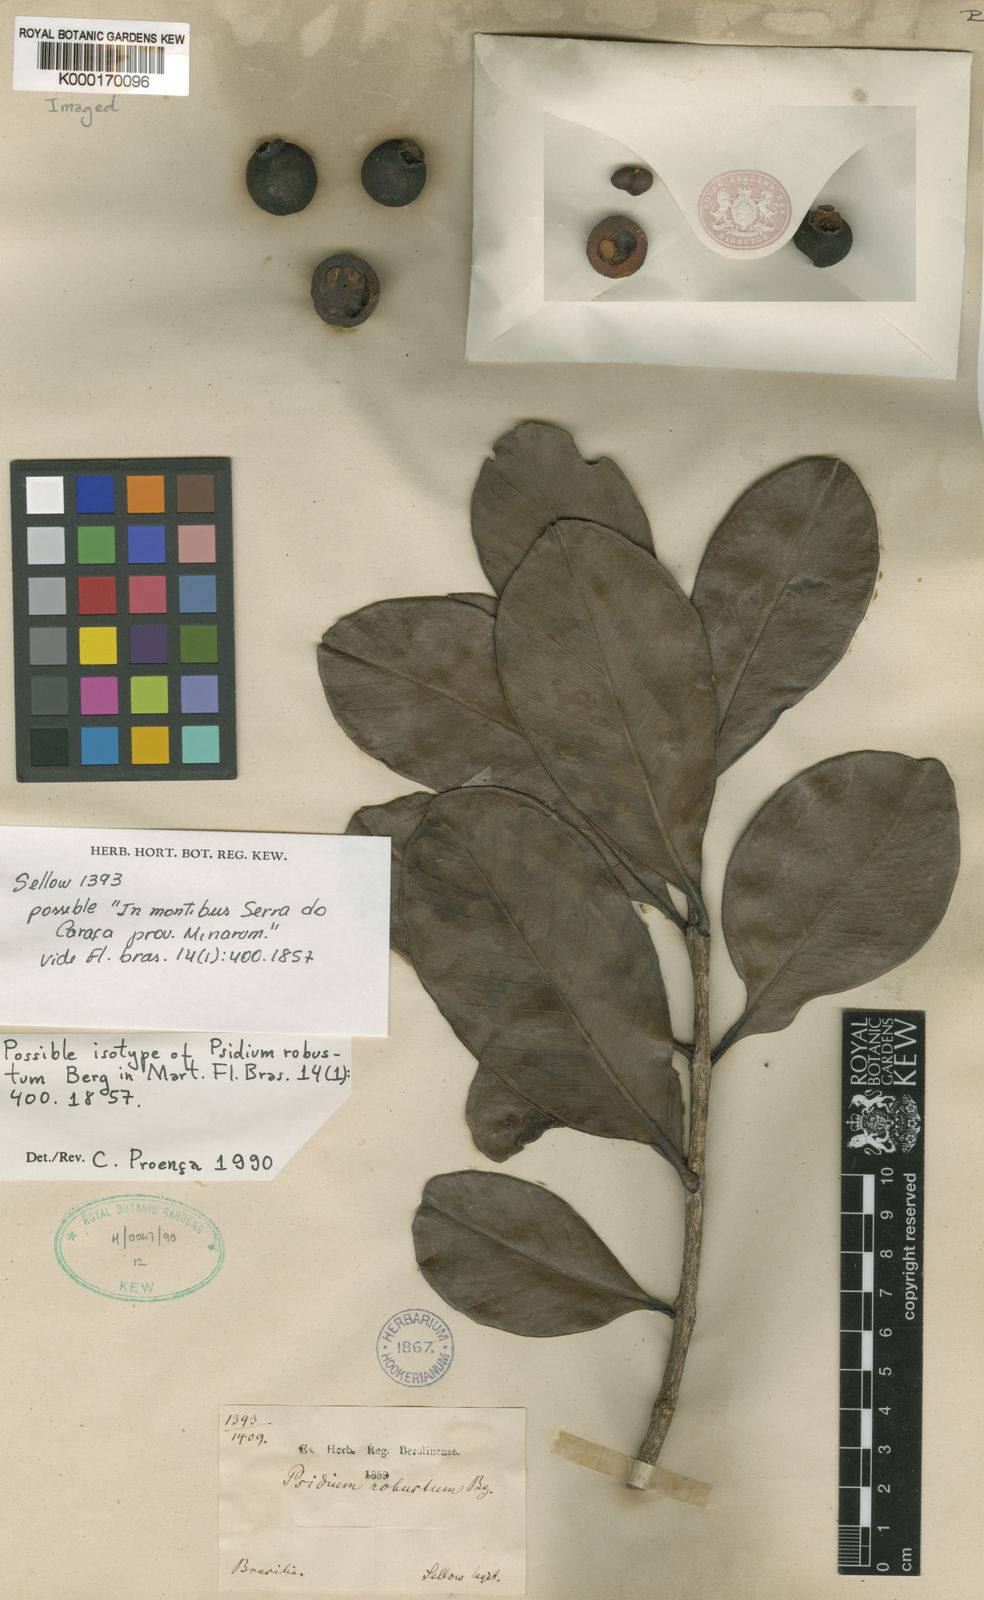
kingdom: Plantae
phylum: Tracheophyta
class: Magnoliopsida
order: Myrtales
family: Myrtaceae
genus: Psidium
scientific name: Psidium robustum
